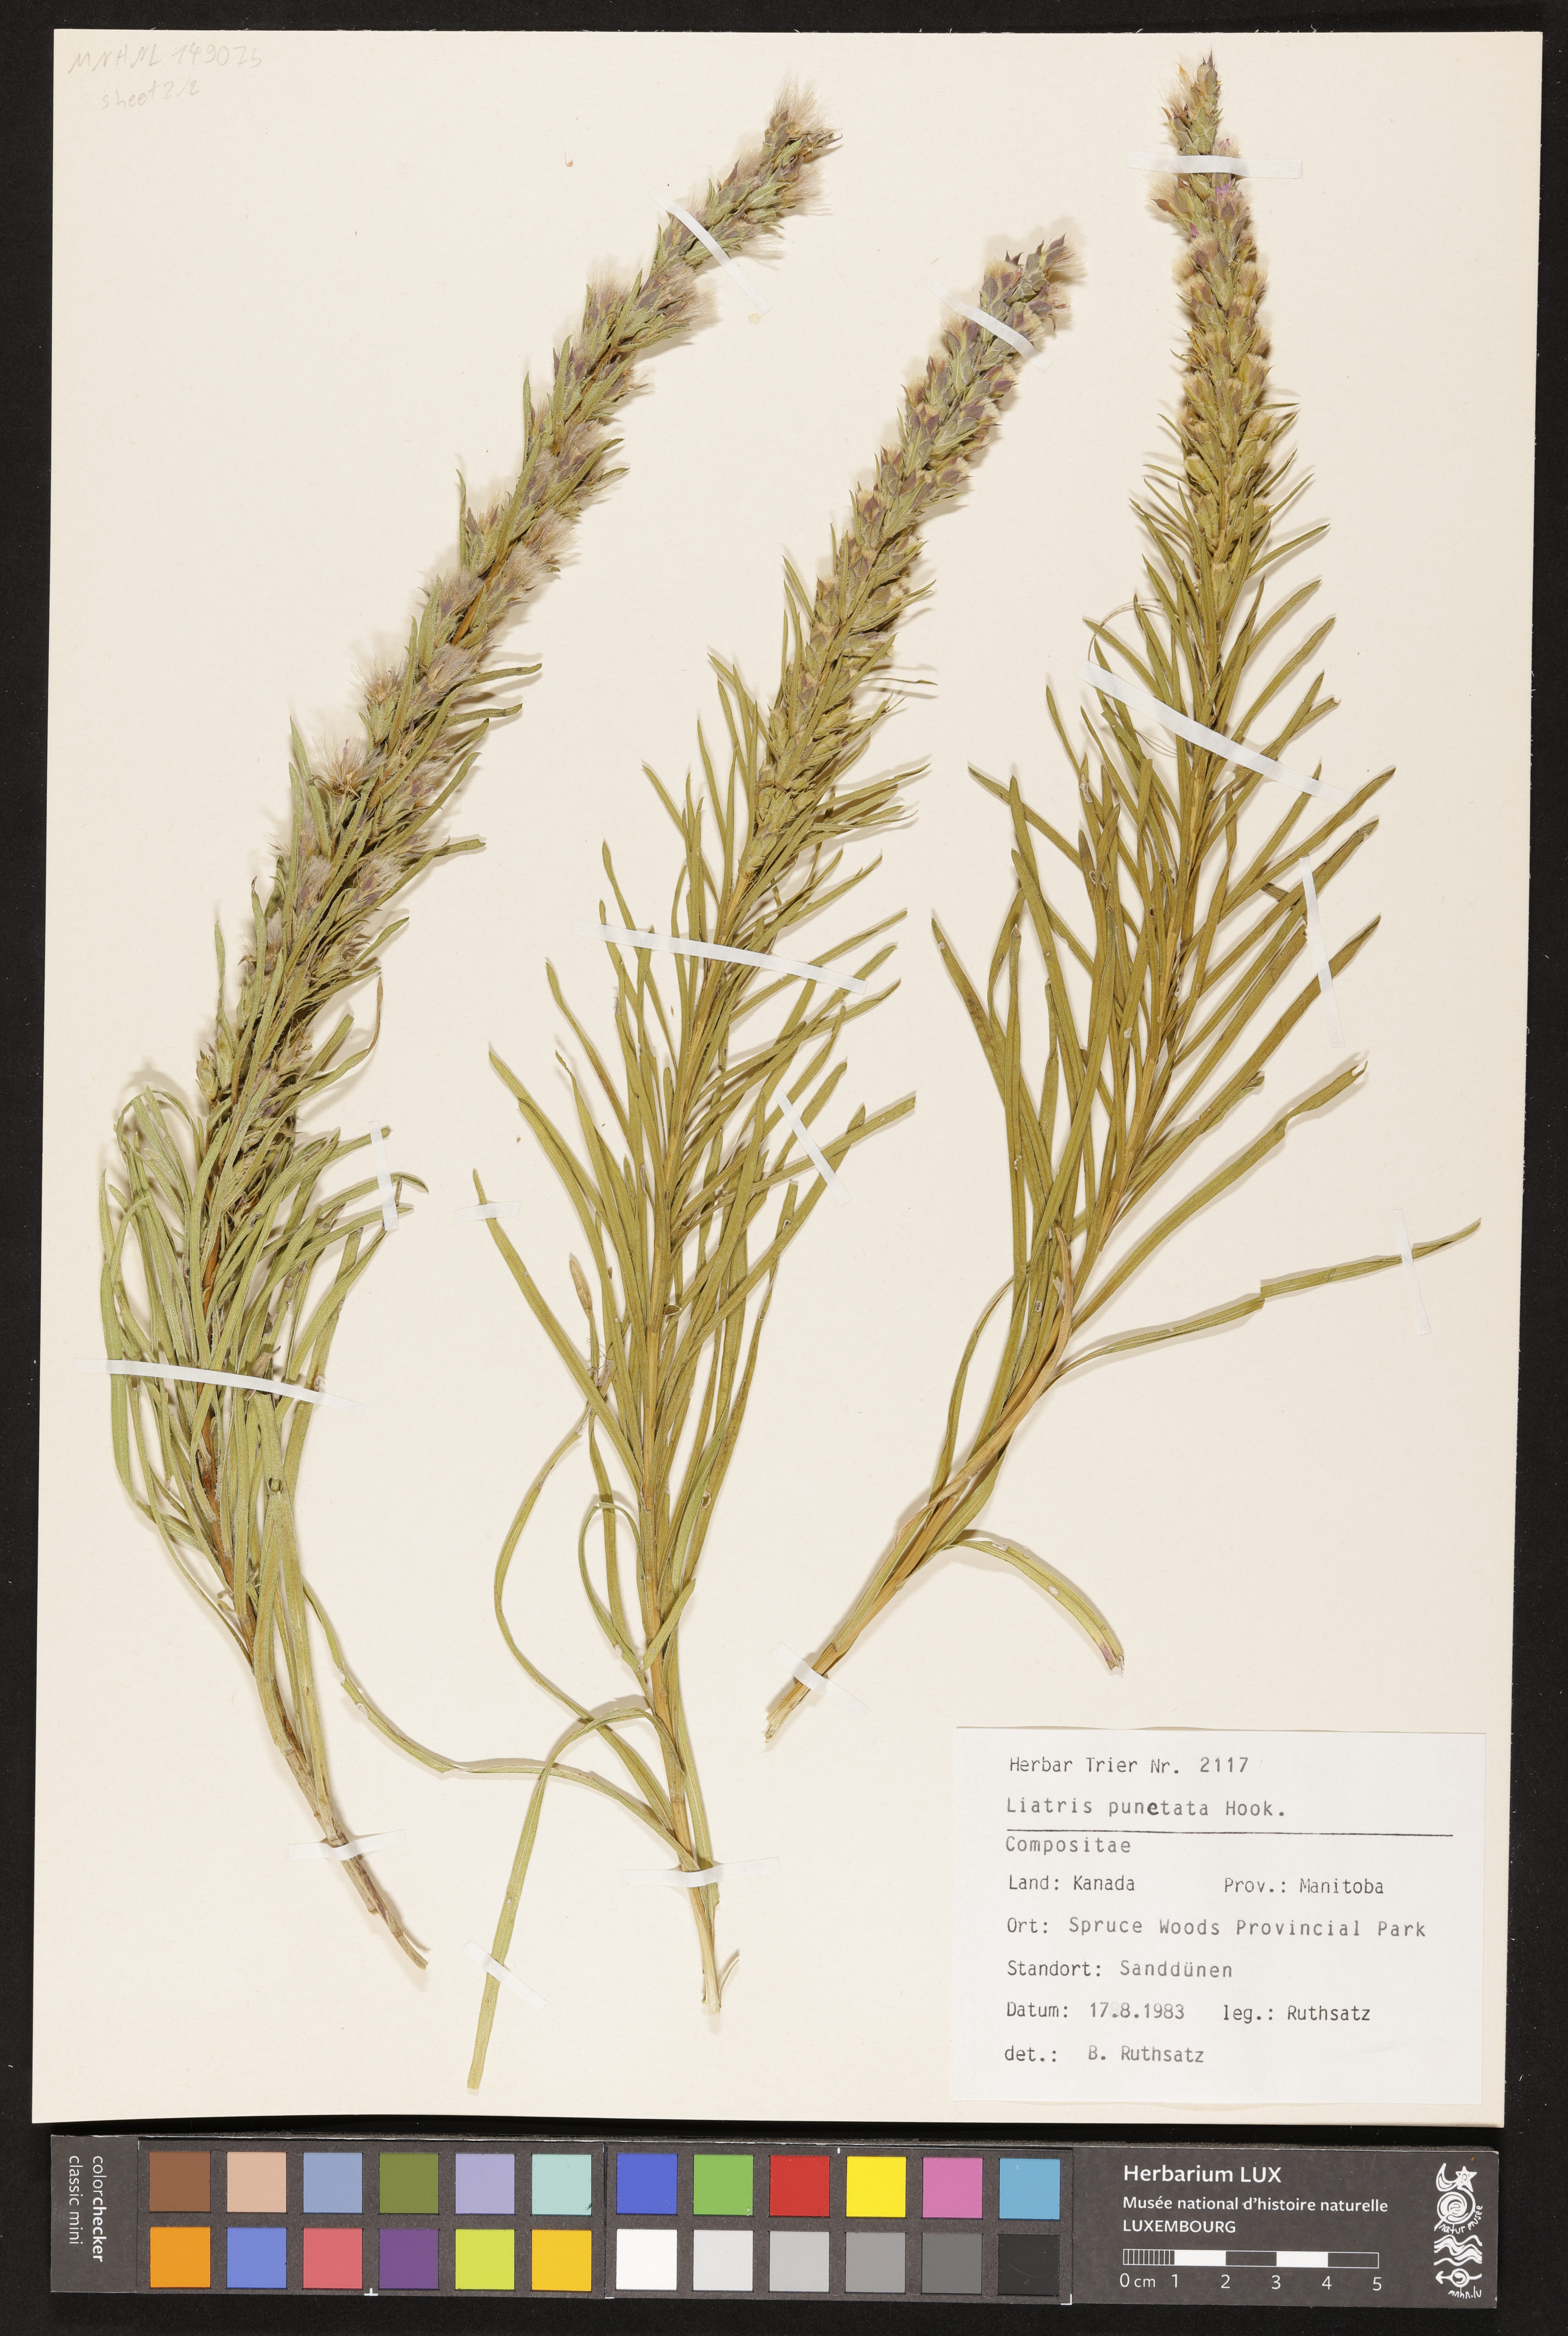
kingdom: Plantae
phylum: Tracheophyta
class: Magnoliopsida
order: Asterales
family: Asteraceae
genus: Liatris
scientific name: Liatris punctata
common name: Dotted gayfeather
